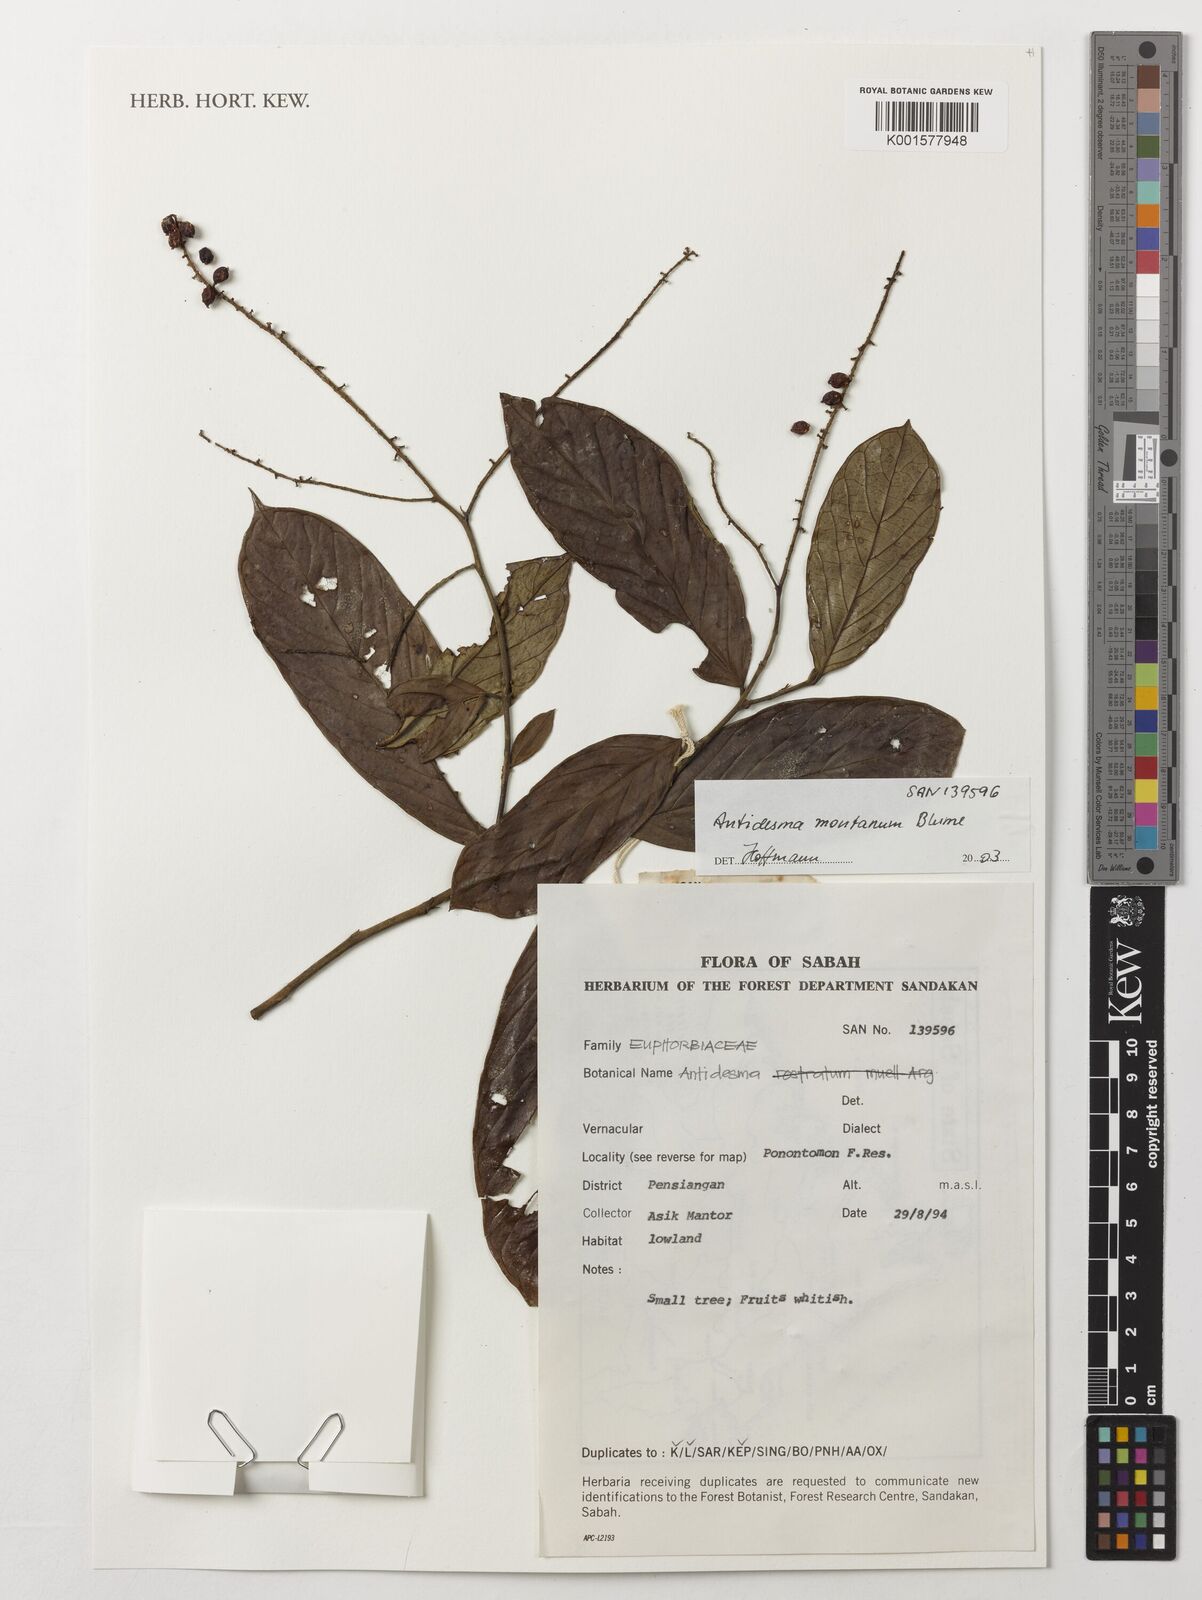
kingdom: Plantae
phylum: Tracheophyta
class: Magnoliopsida
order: Malpighiales
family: Phyllanthaceae
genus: Antidesma
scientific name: Antidesma montanum
